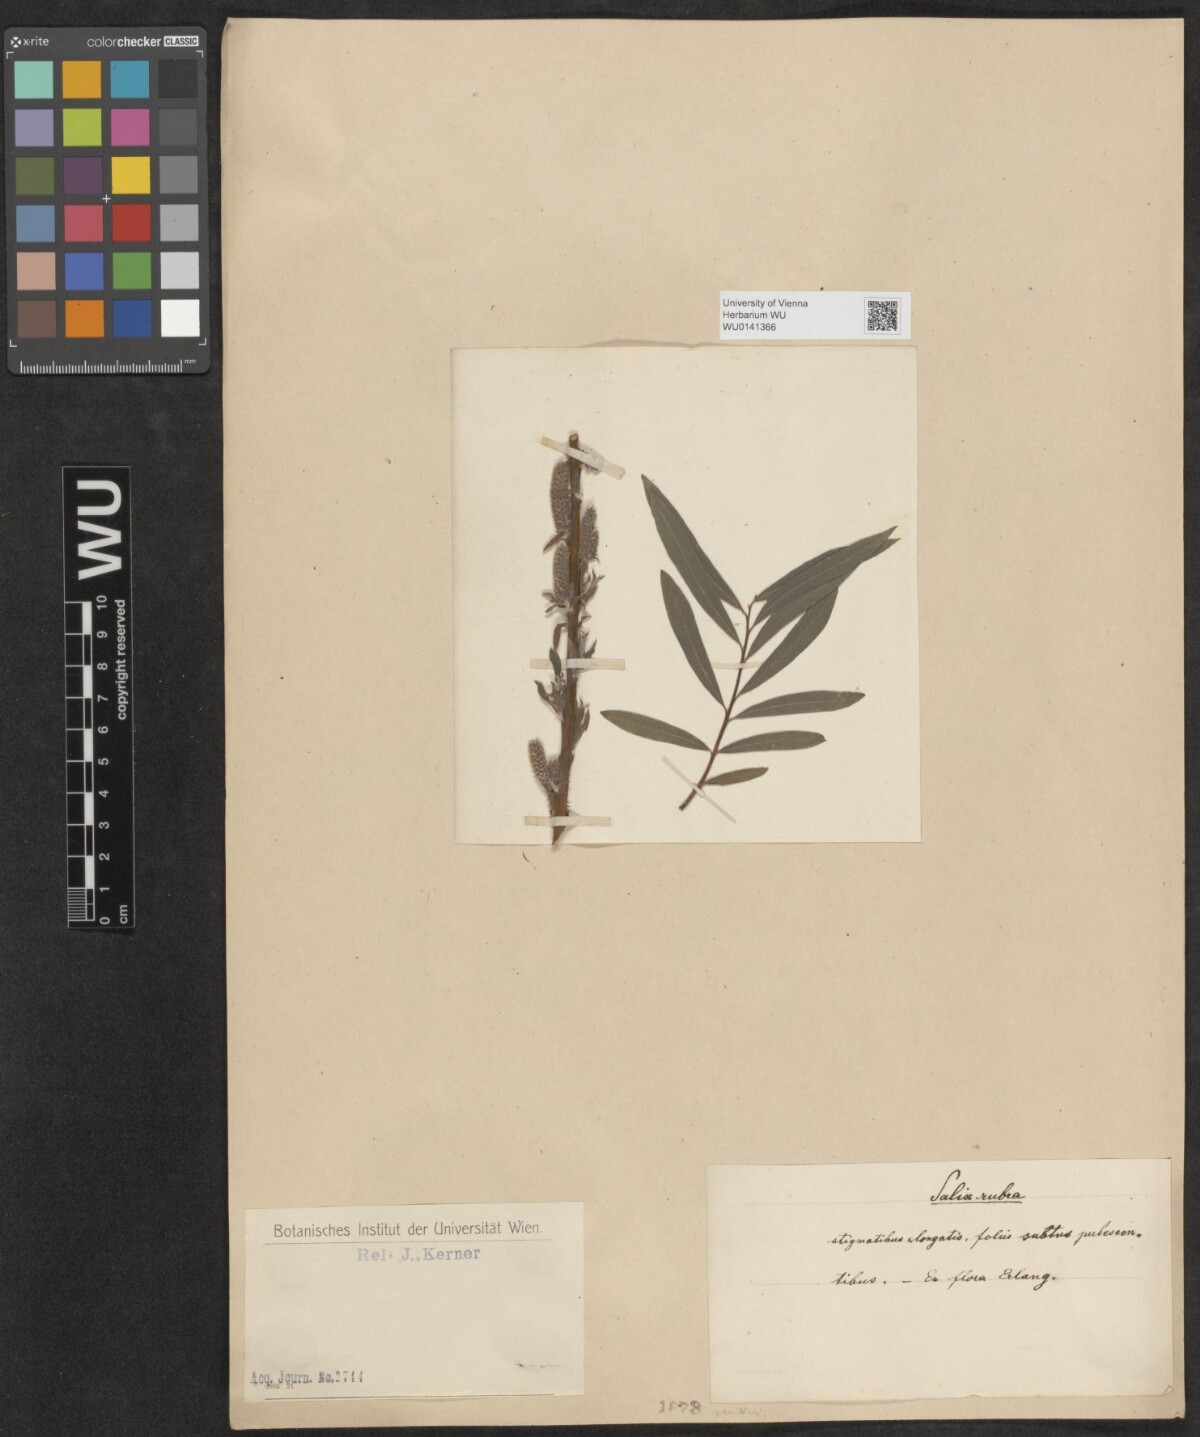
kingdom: Plantae
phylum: Tracheophyta
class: Magnoliopsida
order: Malpighiales
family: Salicaceae
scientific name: Salicaceae
